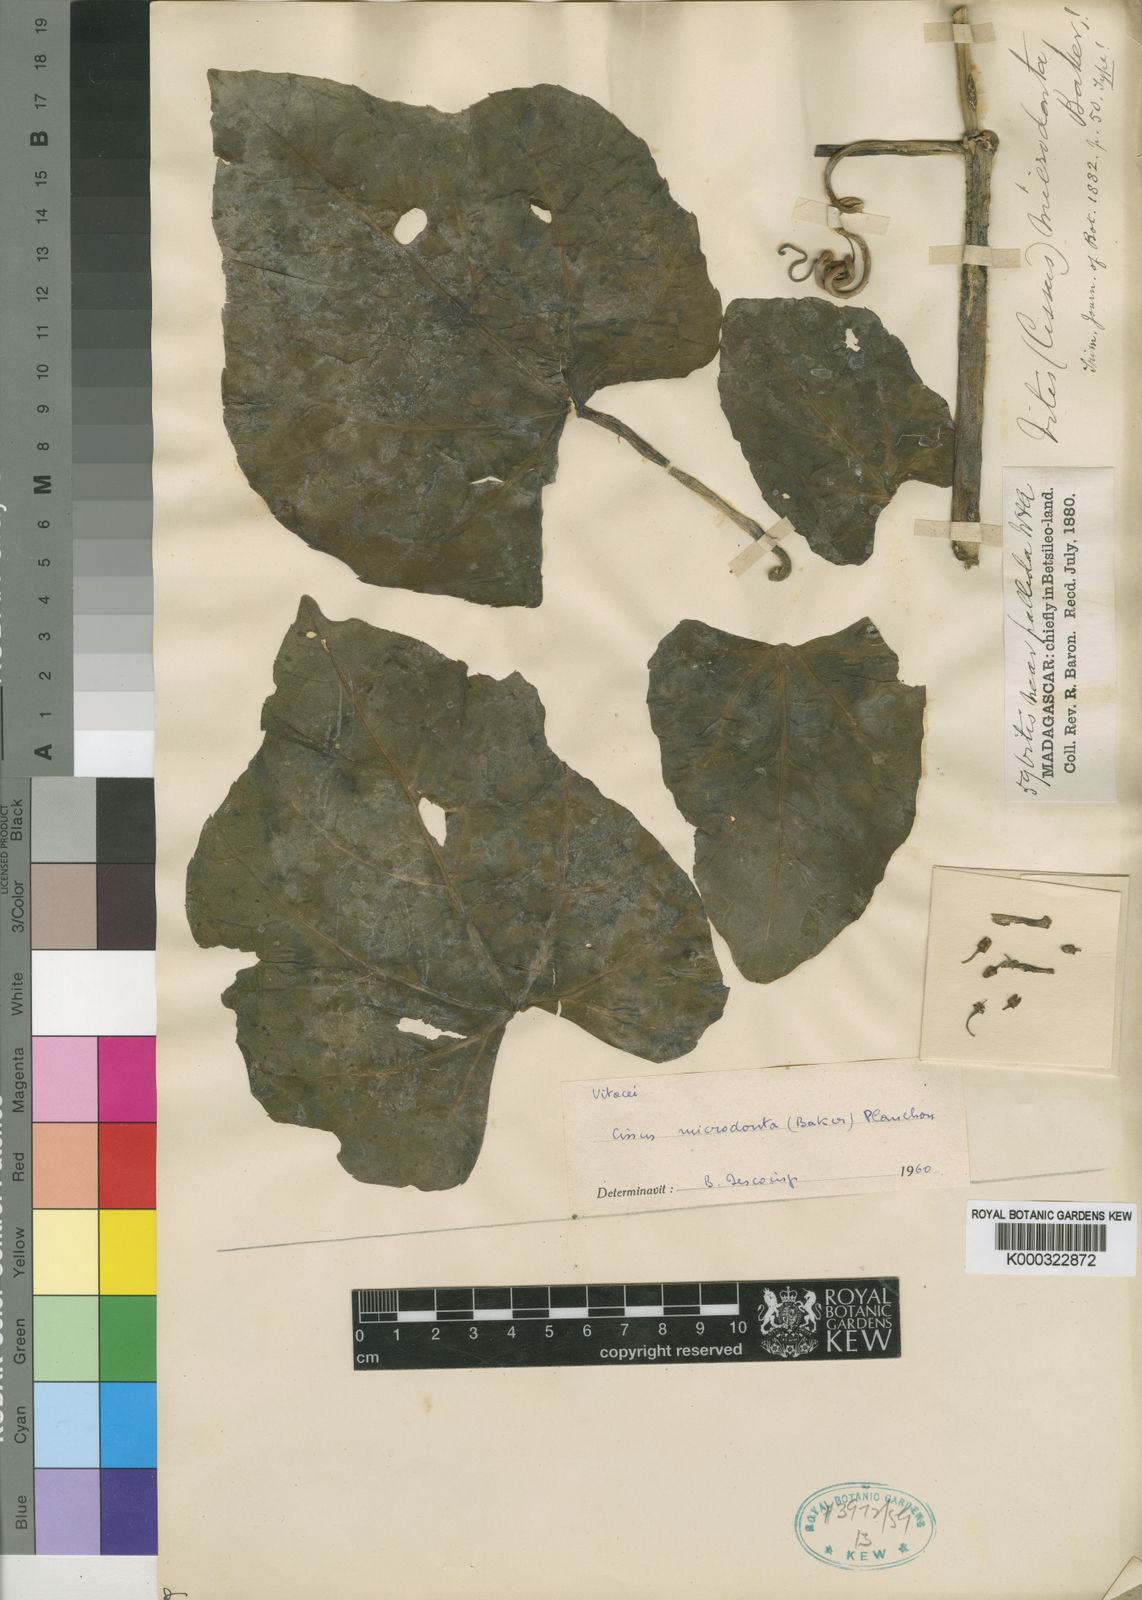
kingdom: Plantae
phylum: Tracheophyta
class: Magnoliopsida
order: Vitales
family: Vitaceae
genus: Cissus
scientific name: Cissus microdonta
